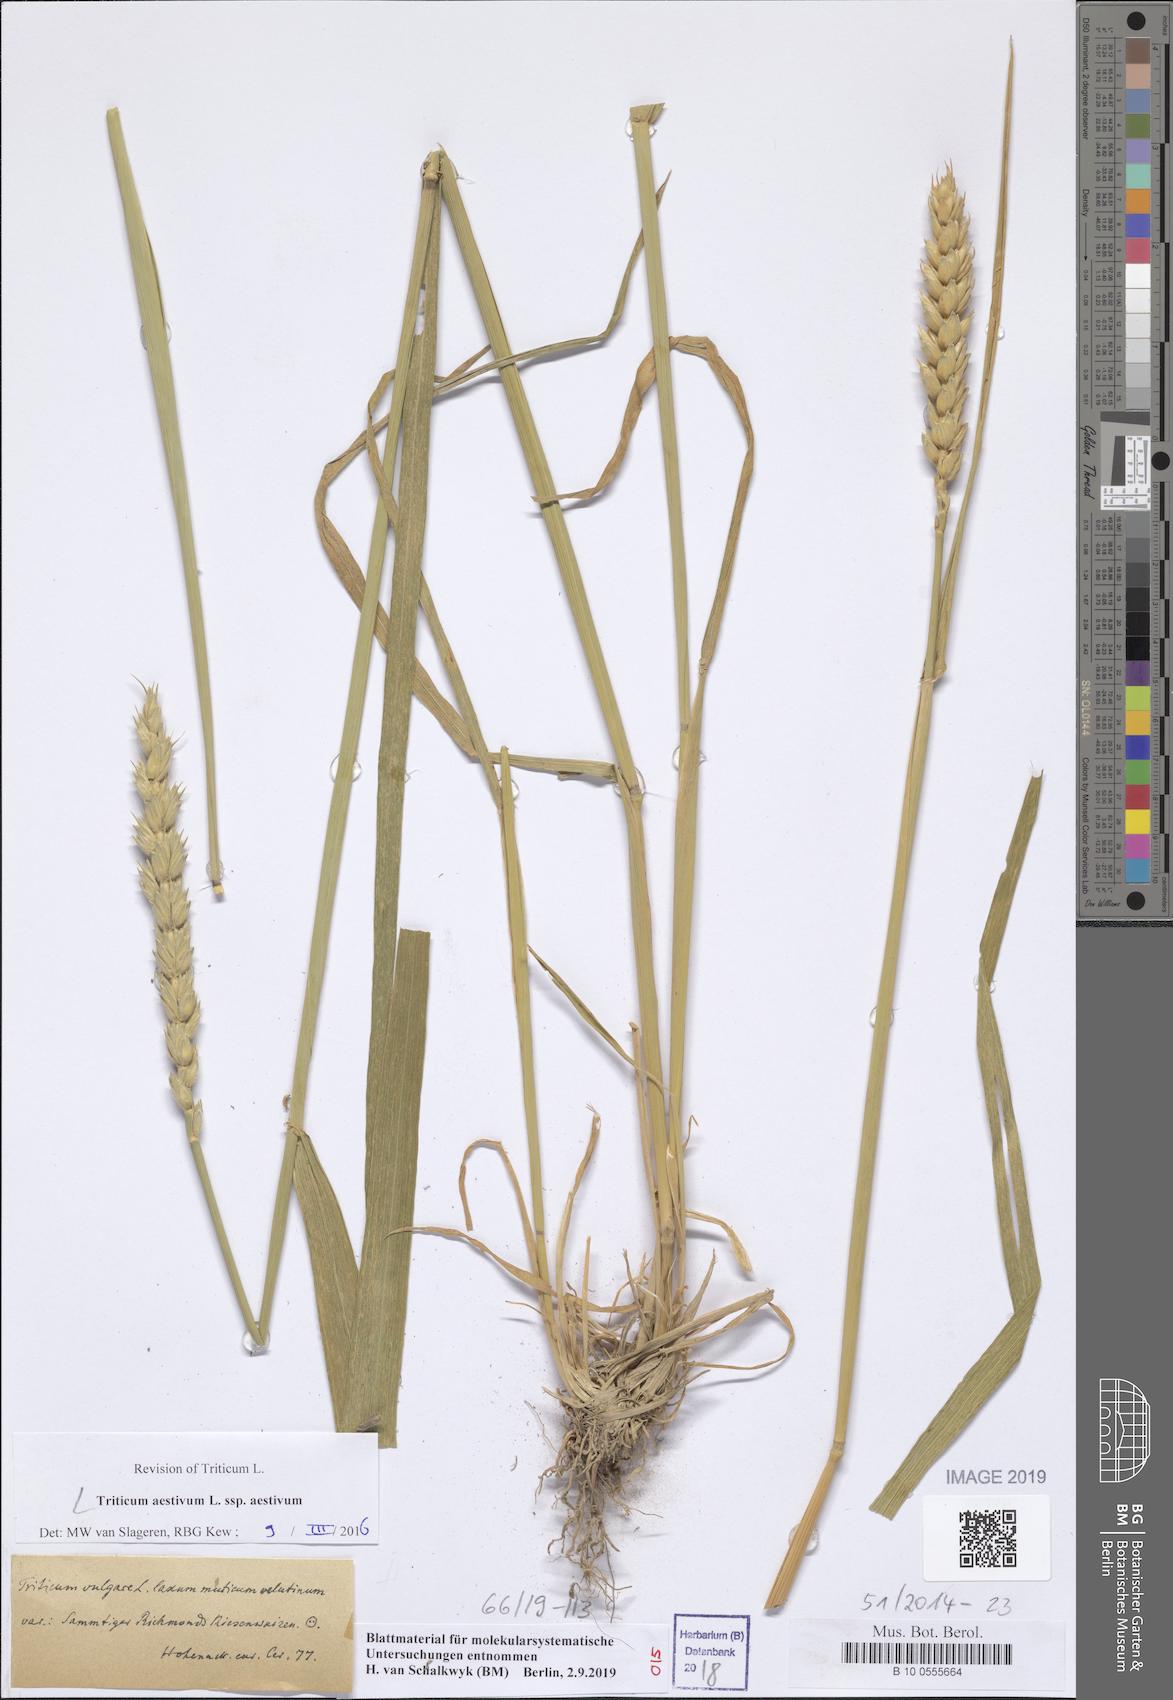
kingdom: Plantae
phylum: Tracheophyta
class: Liliopsida
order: Poales
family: Poaceae
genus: Triticum
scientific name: Triticum aestivum
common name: Common wheat
